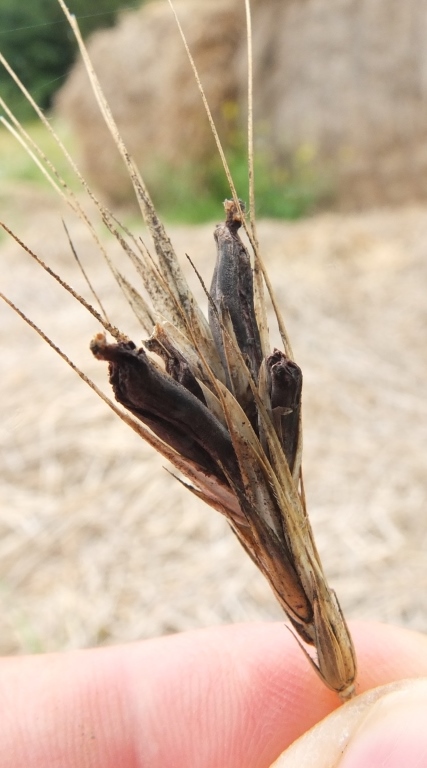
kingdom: Fungi
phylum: Ascomycota
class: Sordariomycetes
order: Hypocreales
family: Clavicipitaceae
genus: Claviceps
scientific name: Claviceps purpurea
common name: almindelig meldrøjer
